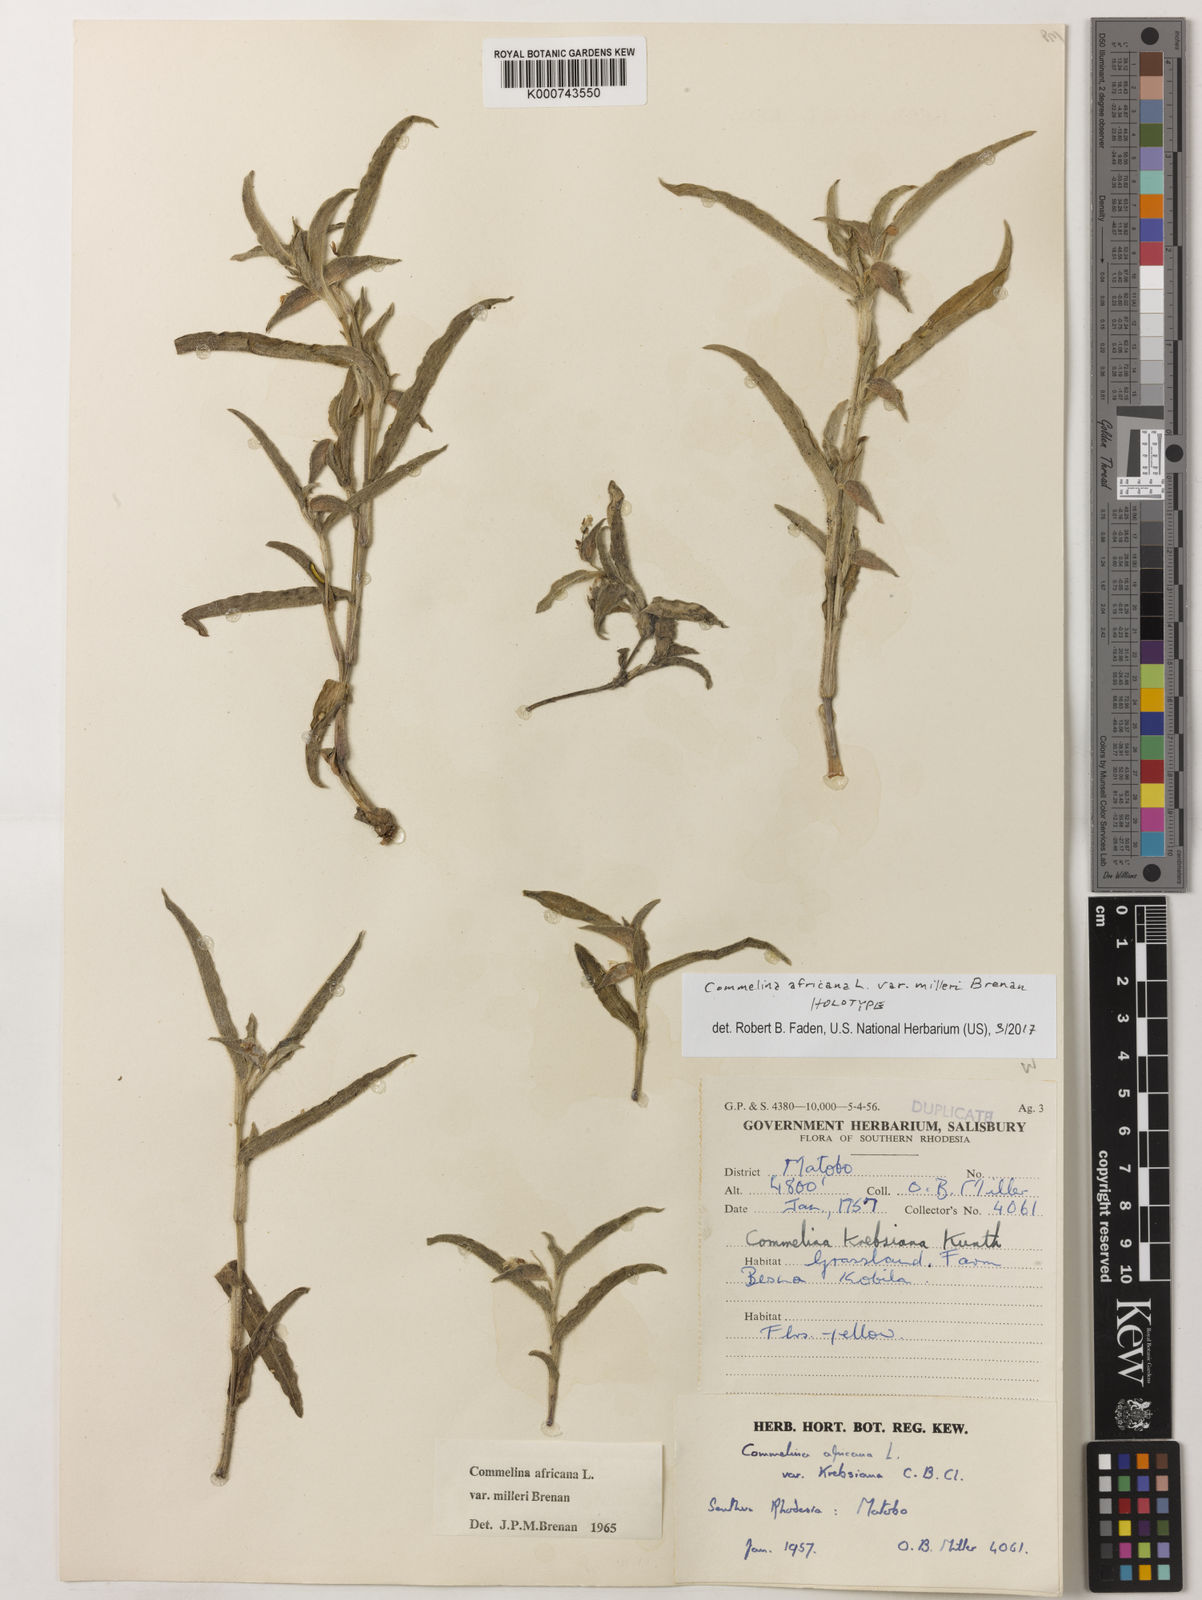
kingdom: Plantae
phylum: Tracheophyta
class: Liliopsida
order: Commelinales
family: Commelinaceae
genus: Commelina
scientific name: Commelina africana
